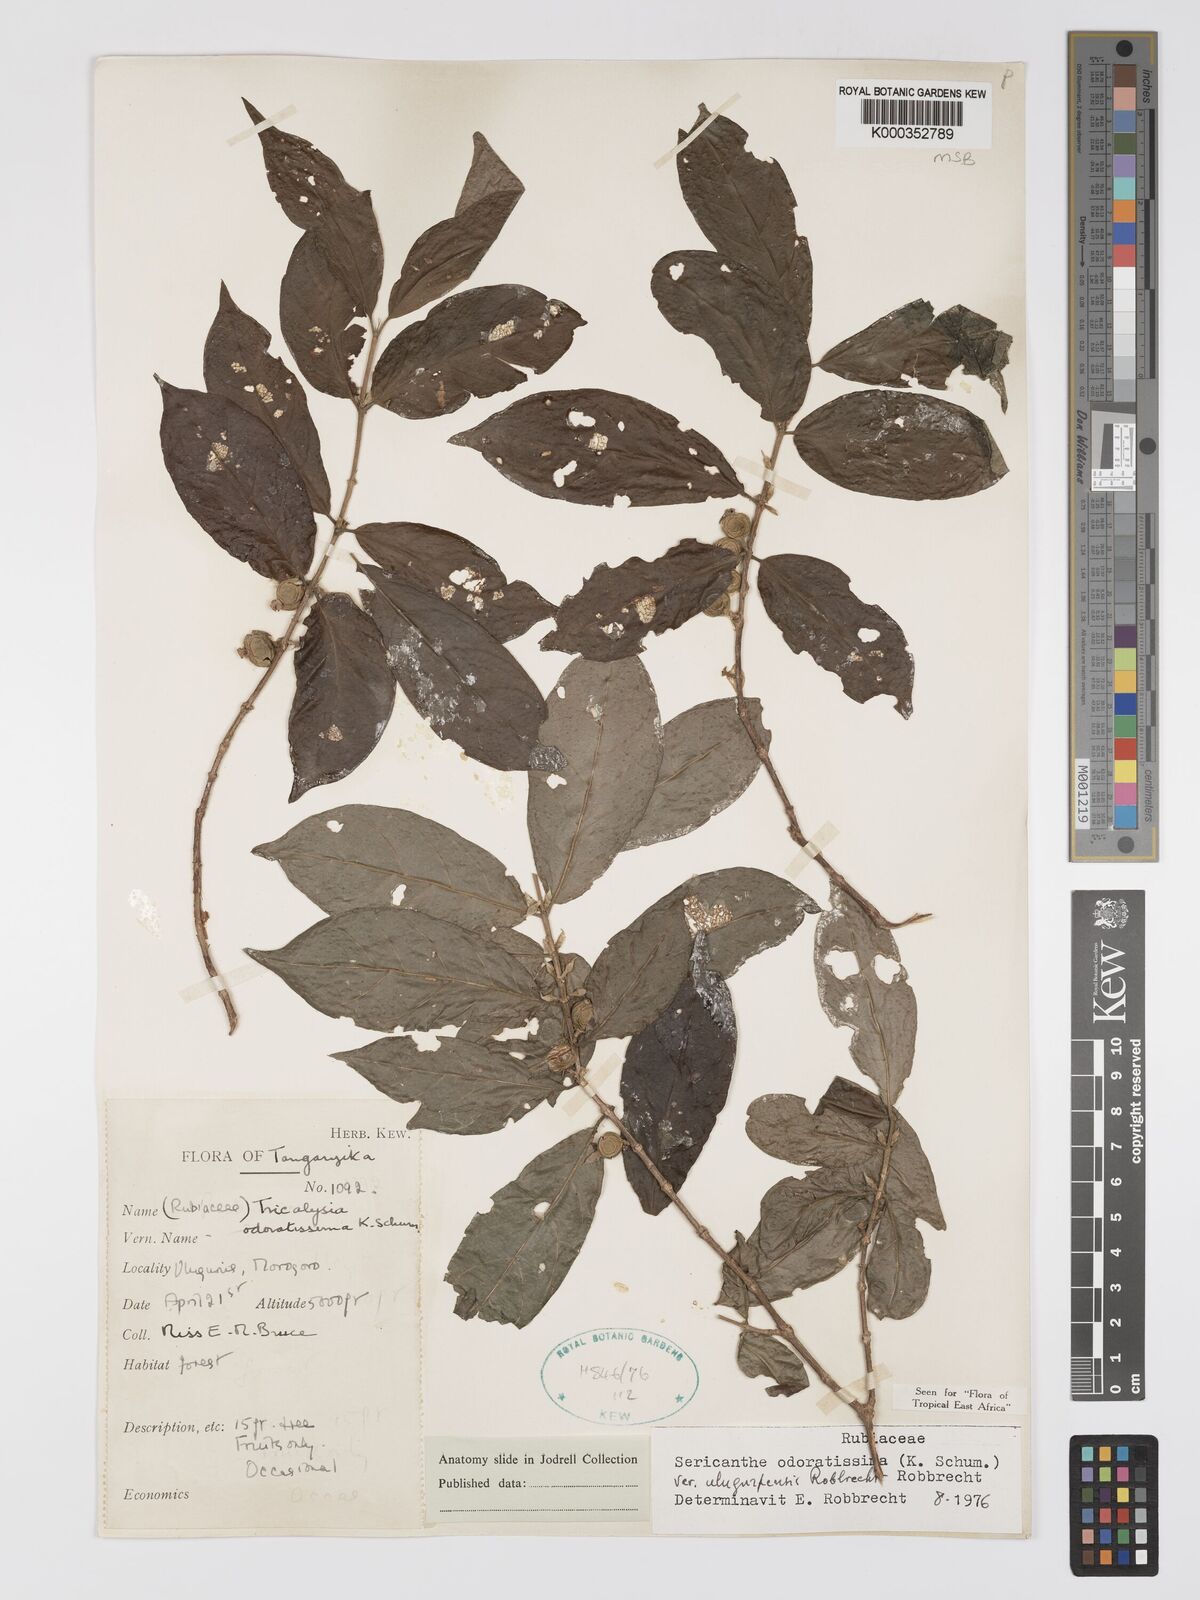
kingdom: Plantae
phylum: Tracheophyta
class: Magnoliopsida
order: Gentianales
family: Rubiaceae
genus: Sericanthe
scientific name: Sericanthe odoratissima
